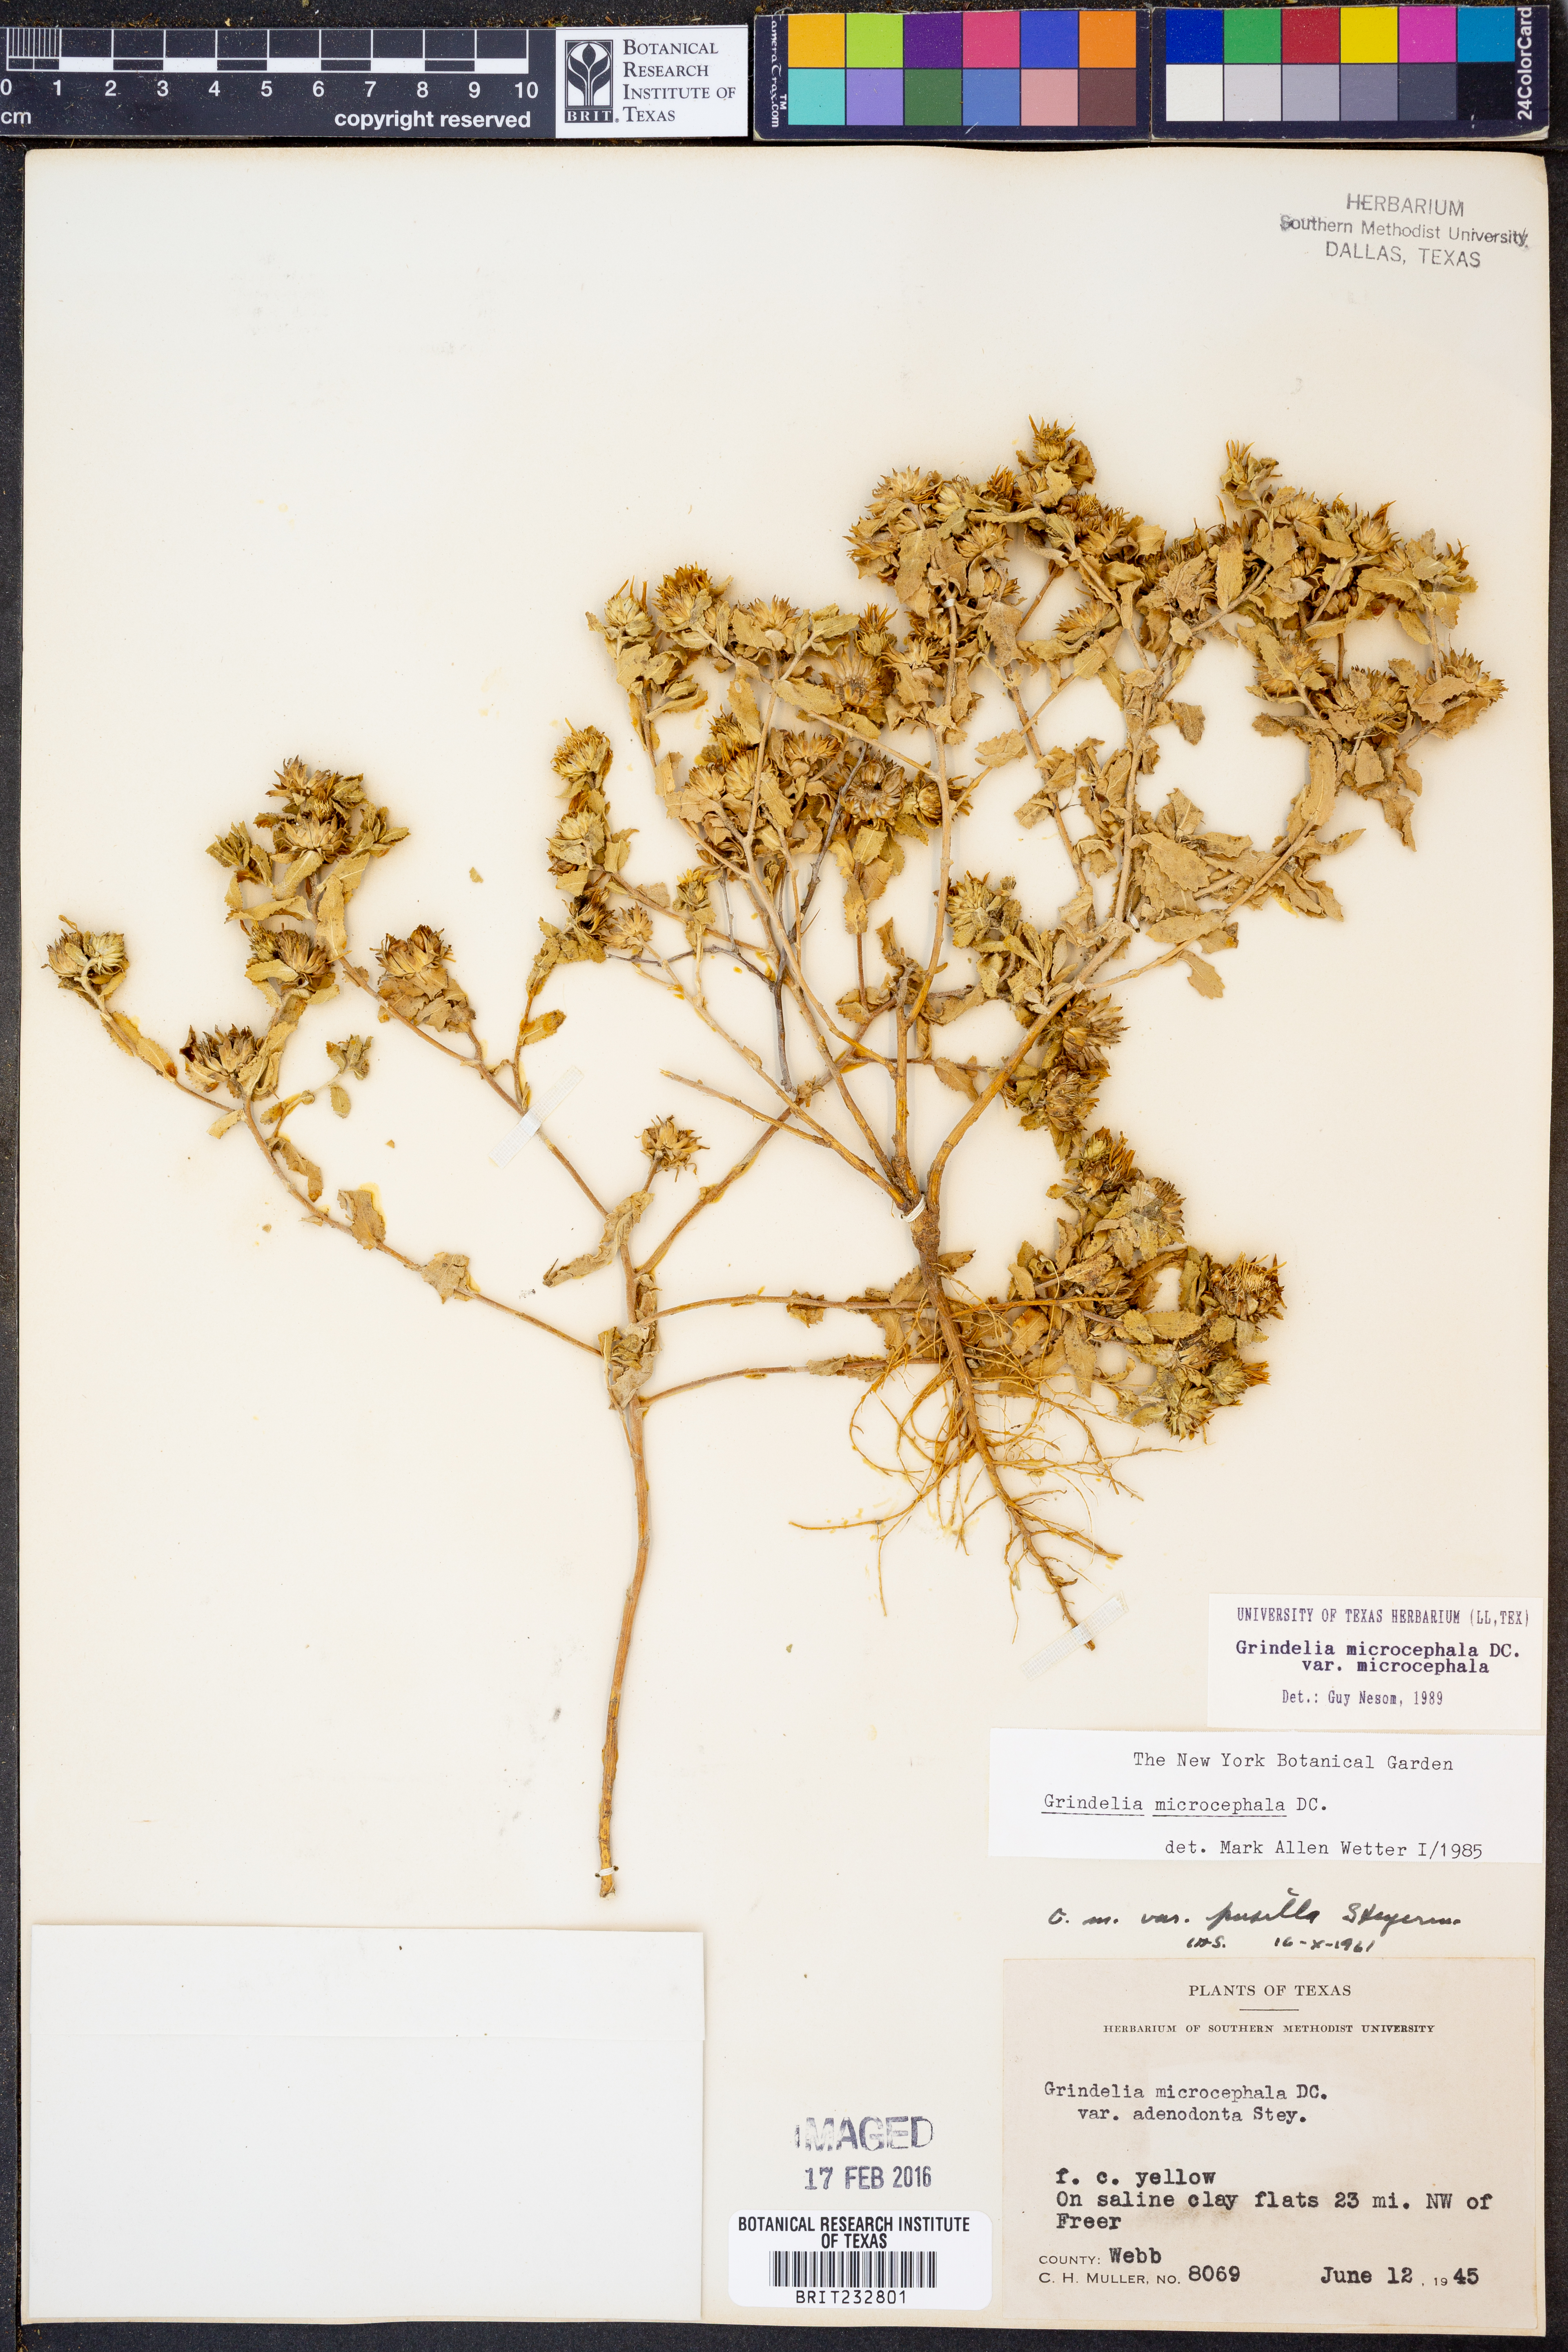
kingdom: Plantae
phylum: Tracheophyta
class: Magnoliopsida
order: Asterales
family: Asteraceae
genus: Grindelia
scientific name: Grindelia microcephala
